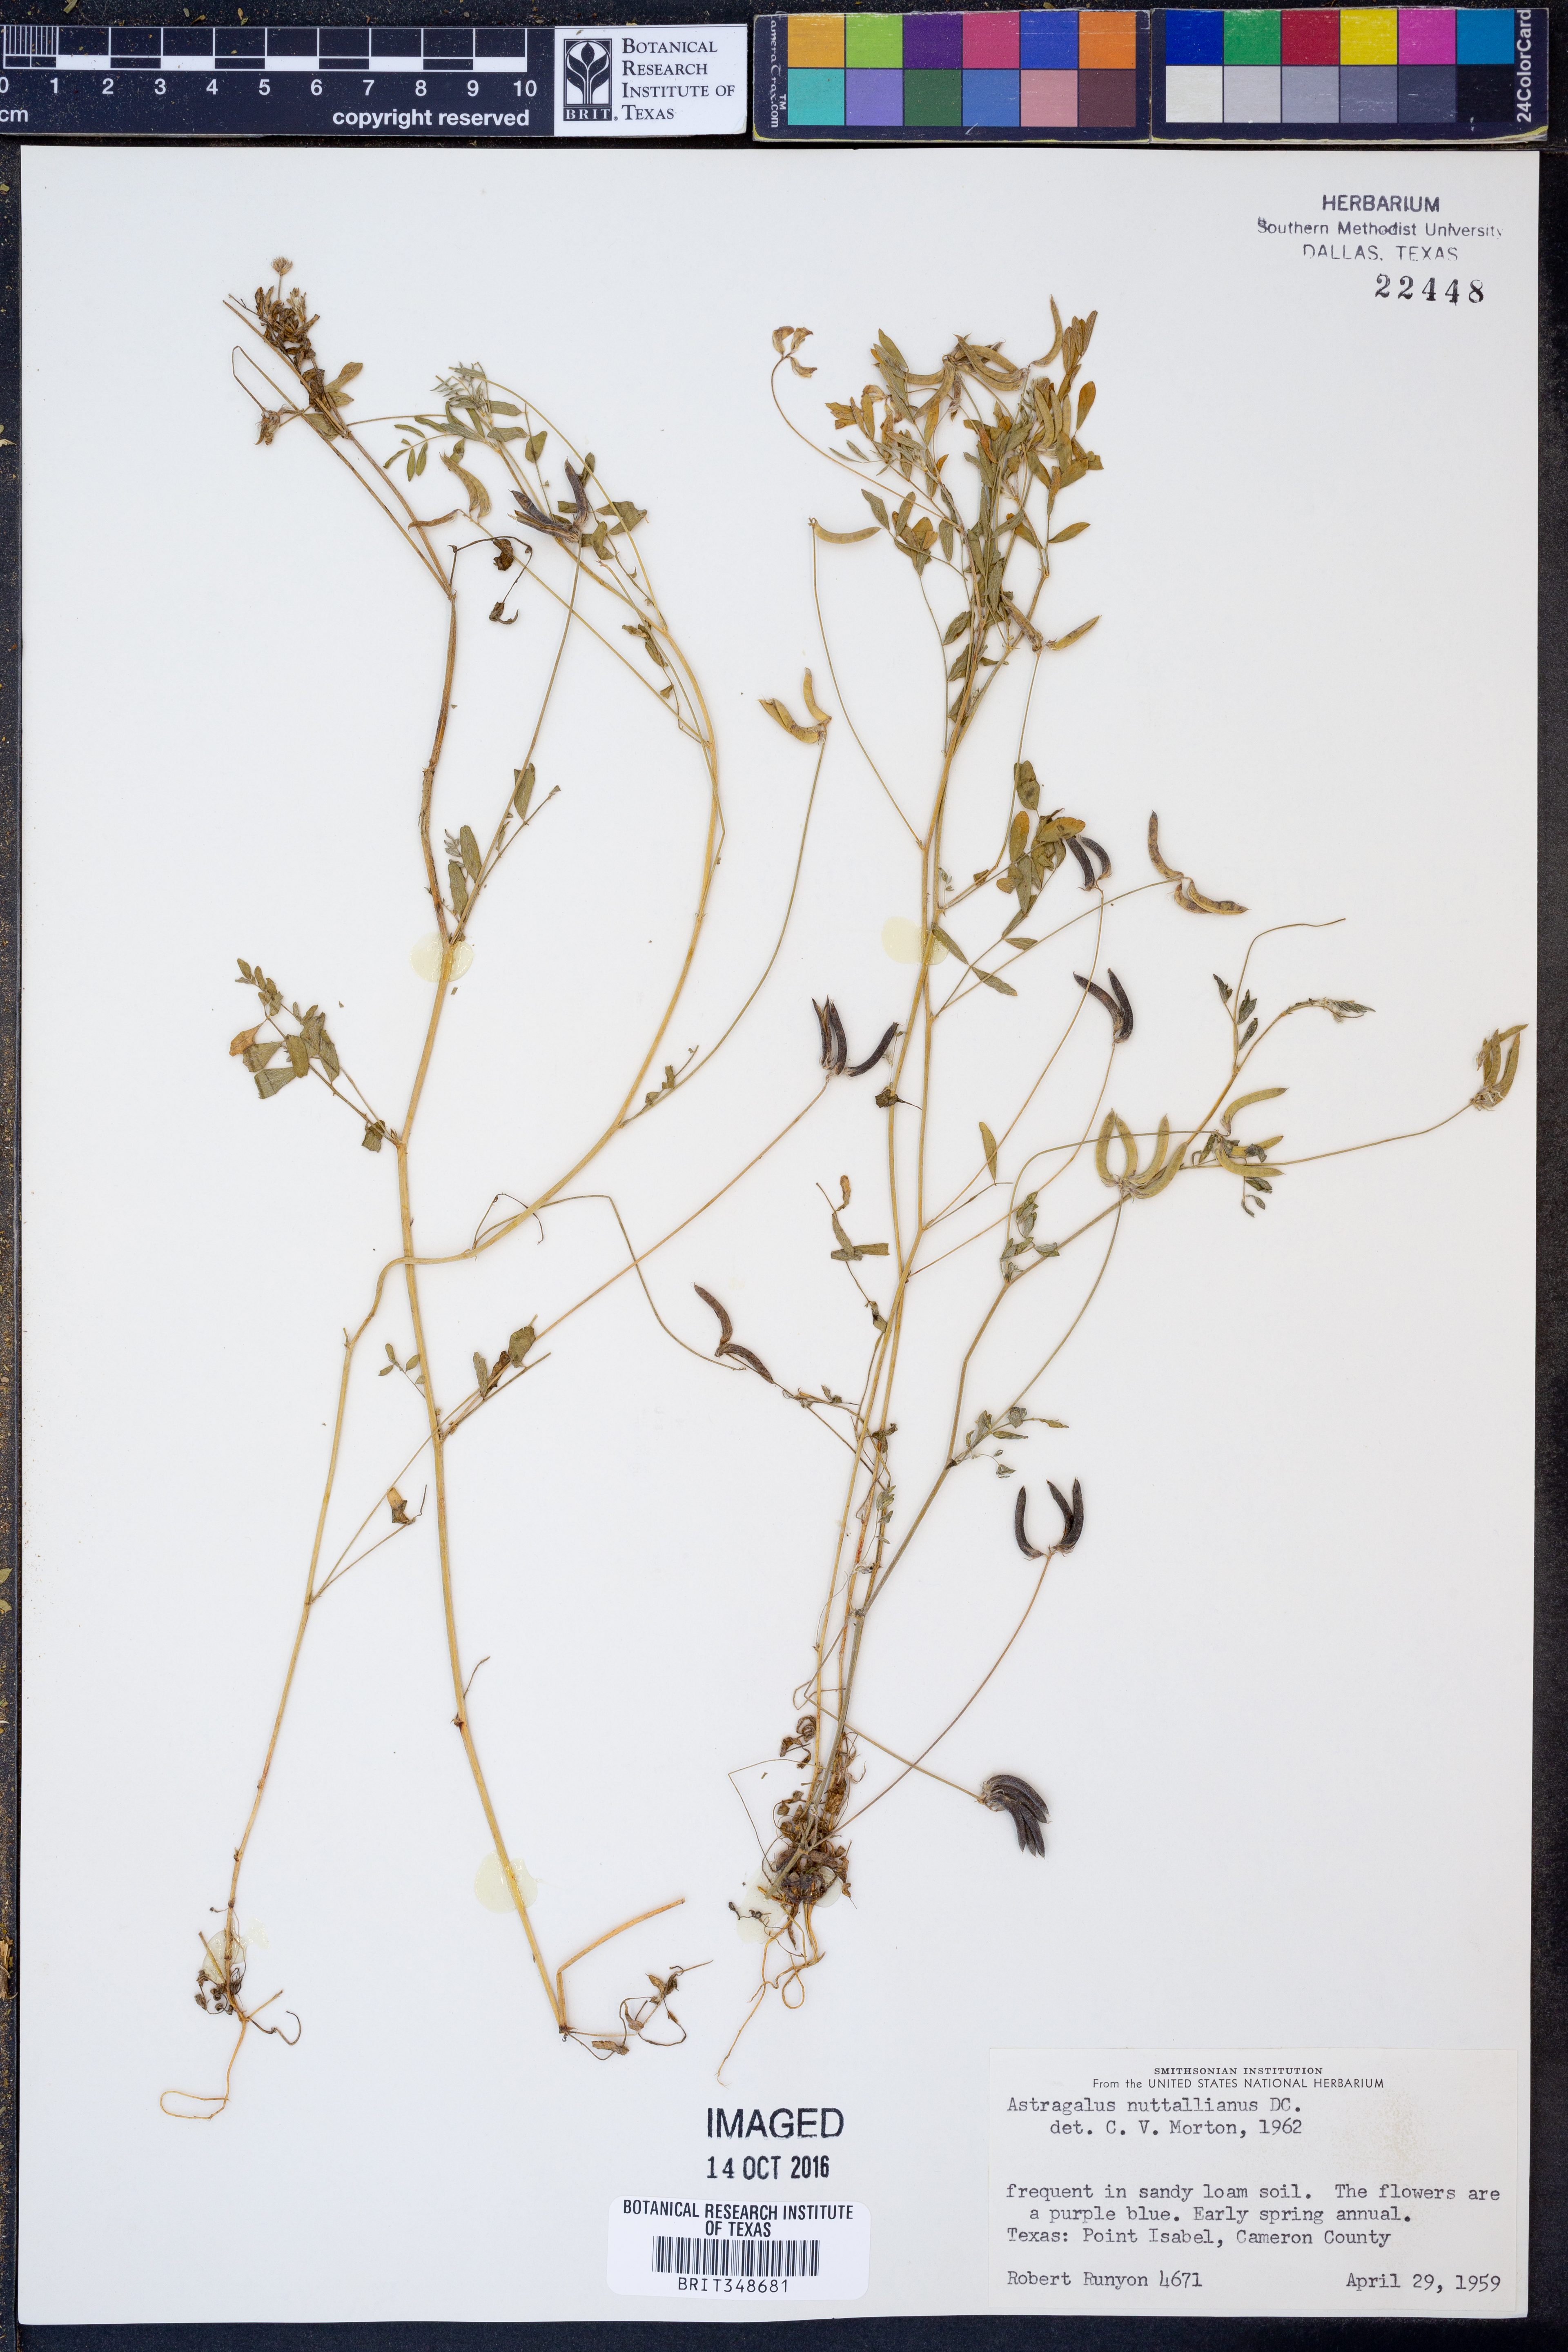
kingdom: Plantae
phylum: Tracheophyta
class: Magnoliopsida
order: Fabales
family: Fabaceae
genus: Astragalus
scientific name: Astragalus nuttallianus
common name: Smallflowered milkvetch
